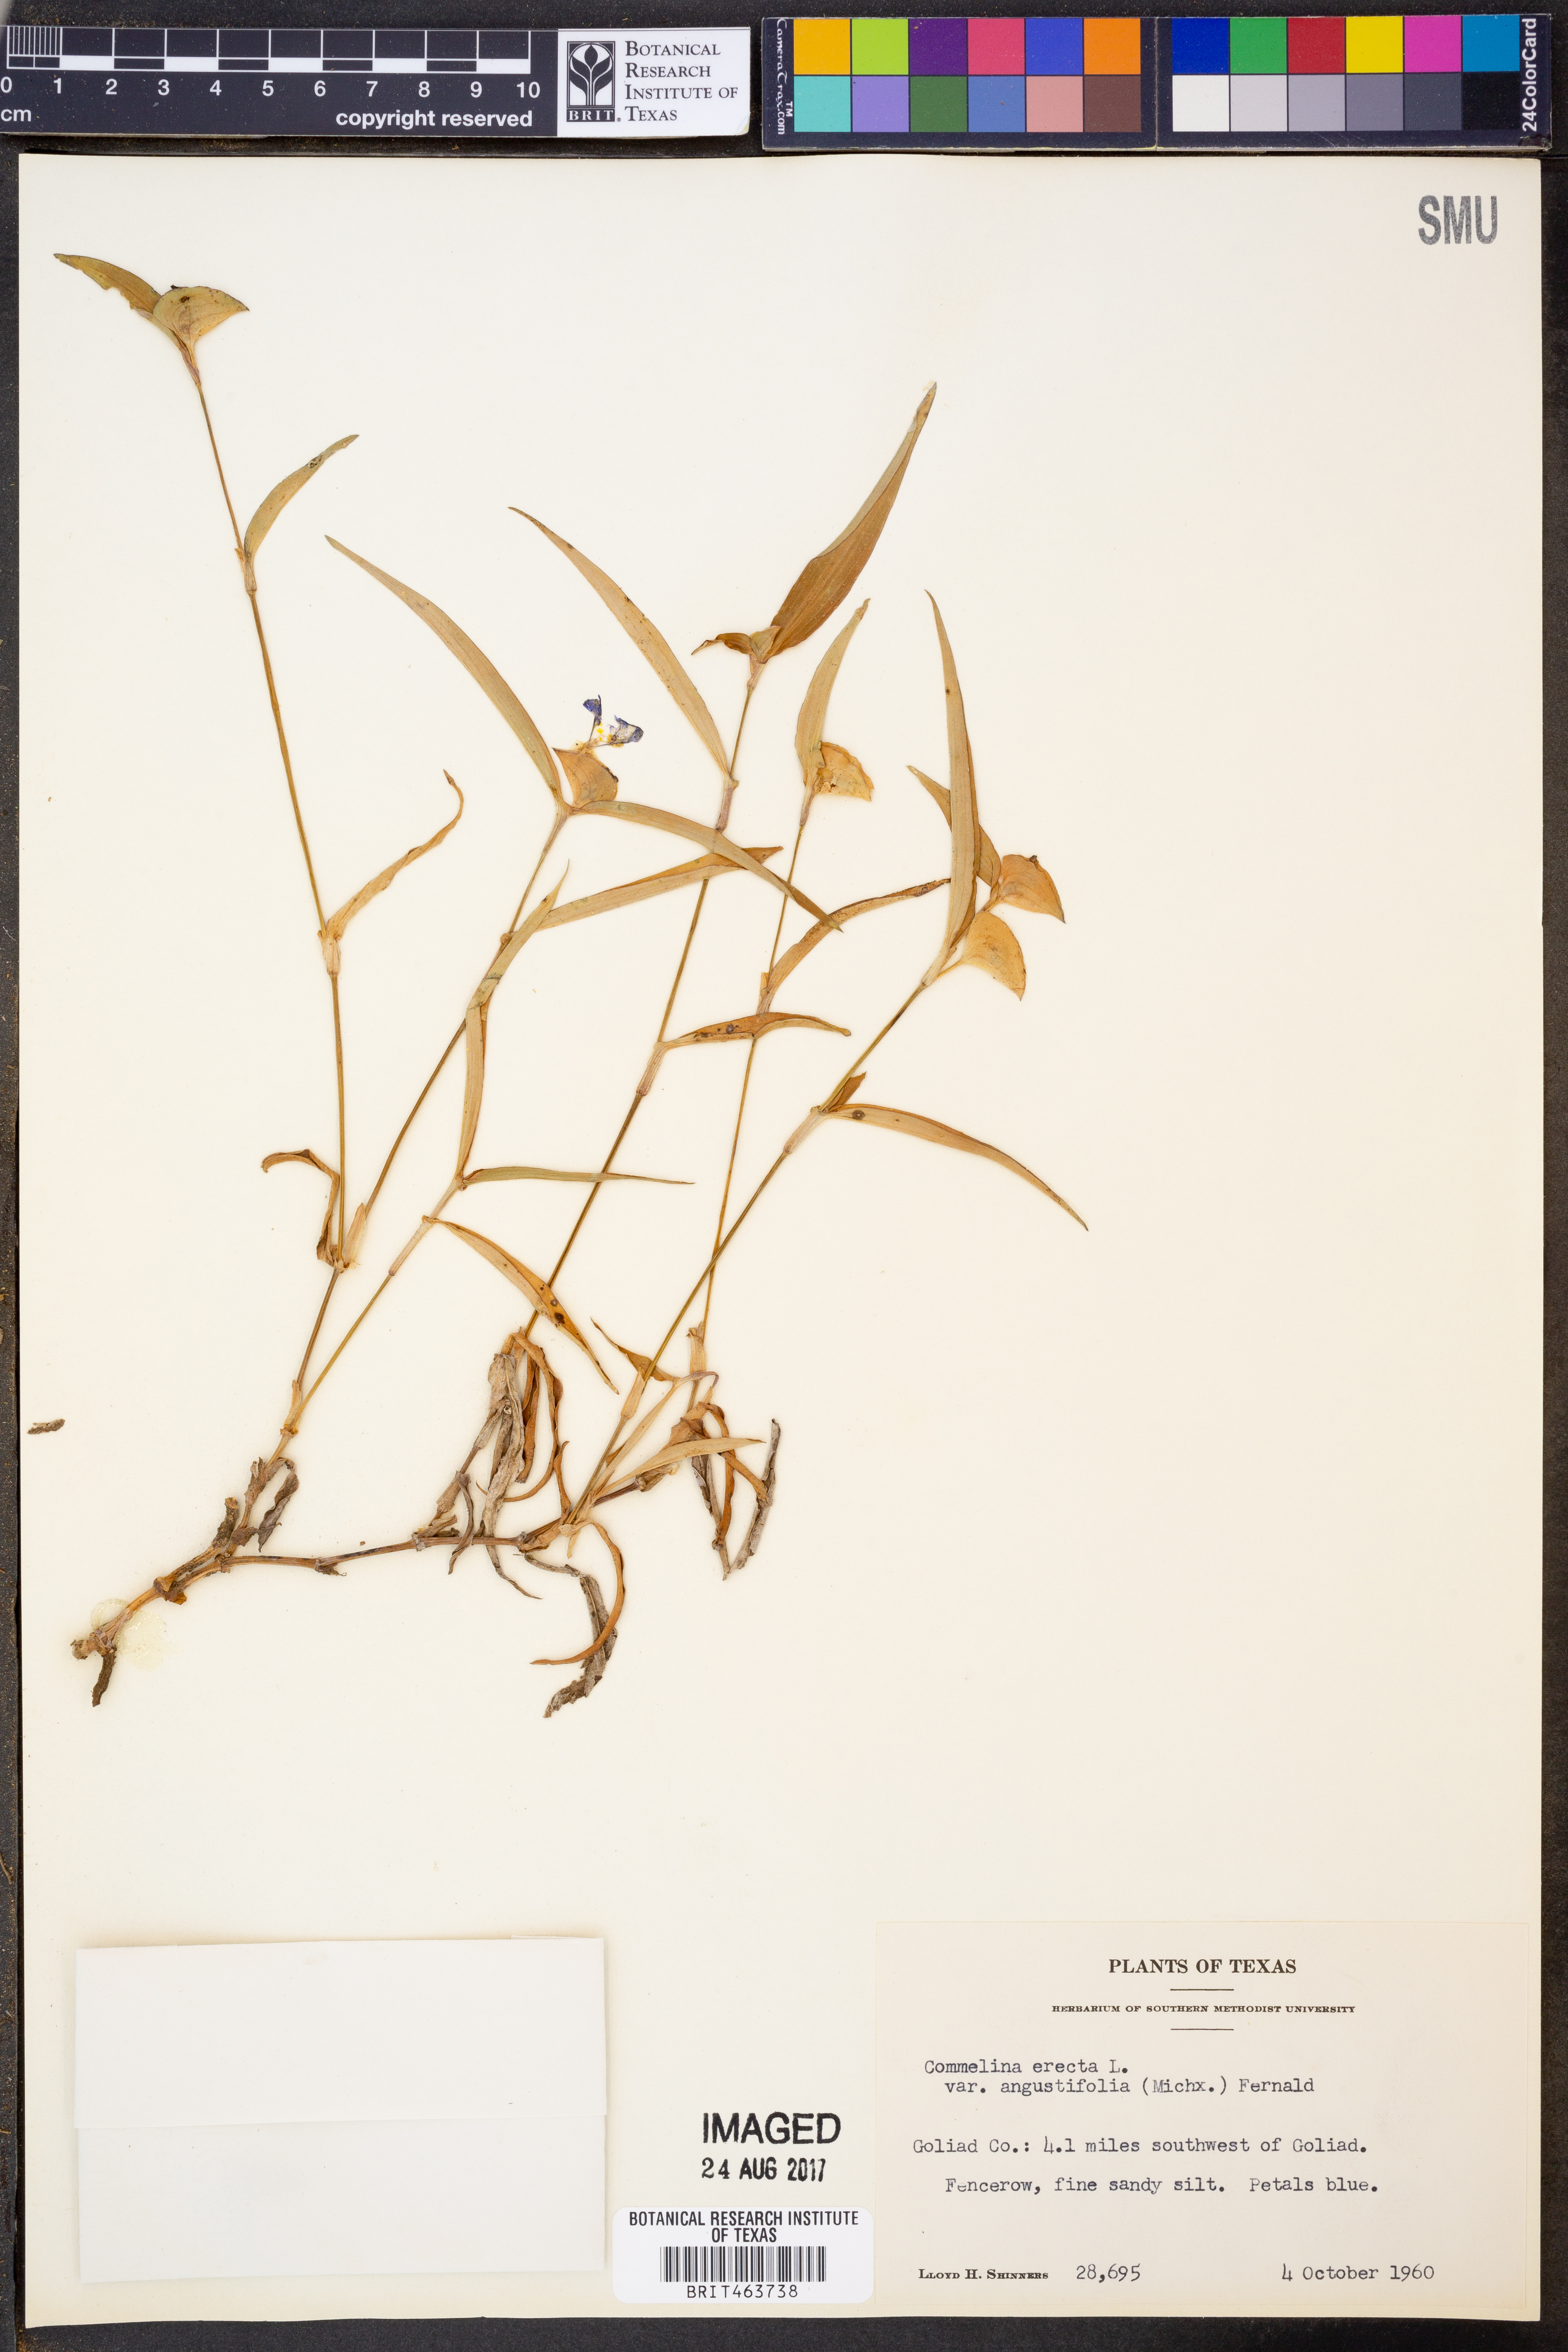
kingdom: Plantae
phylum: Tracheophyta
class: Liliopsida
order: Commelinales
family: Commelinaceae
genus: Commelina
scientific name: Commelina erecta
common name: Blousel blommetjie
